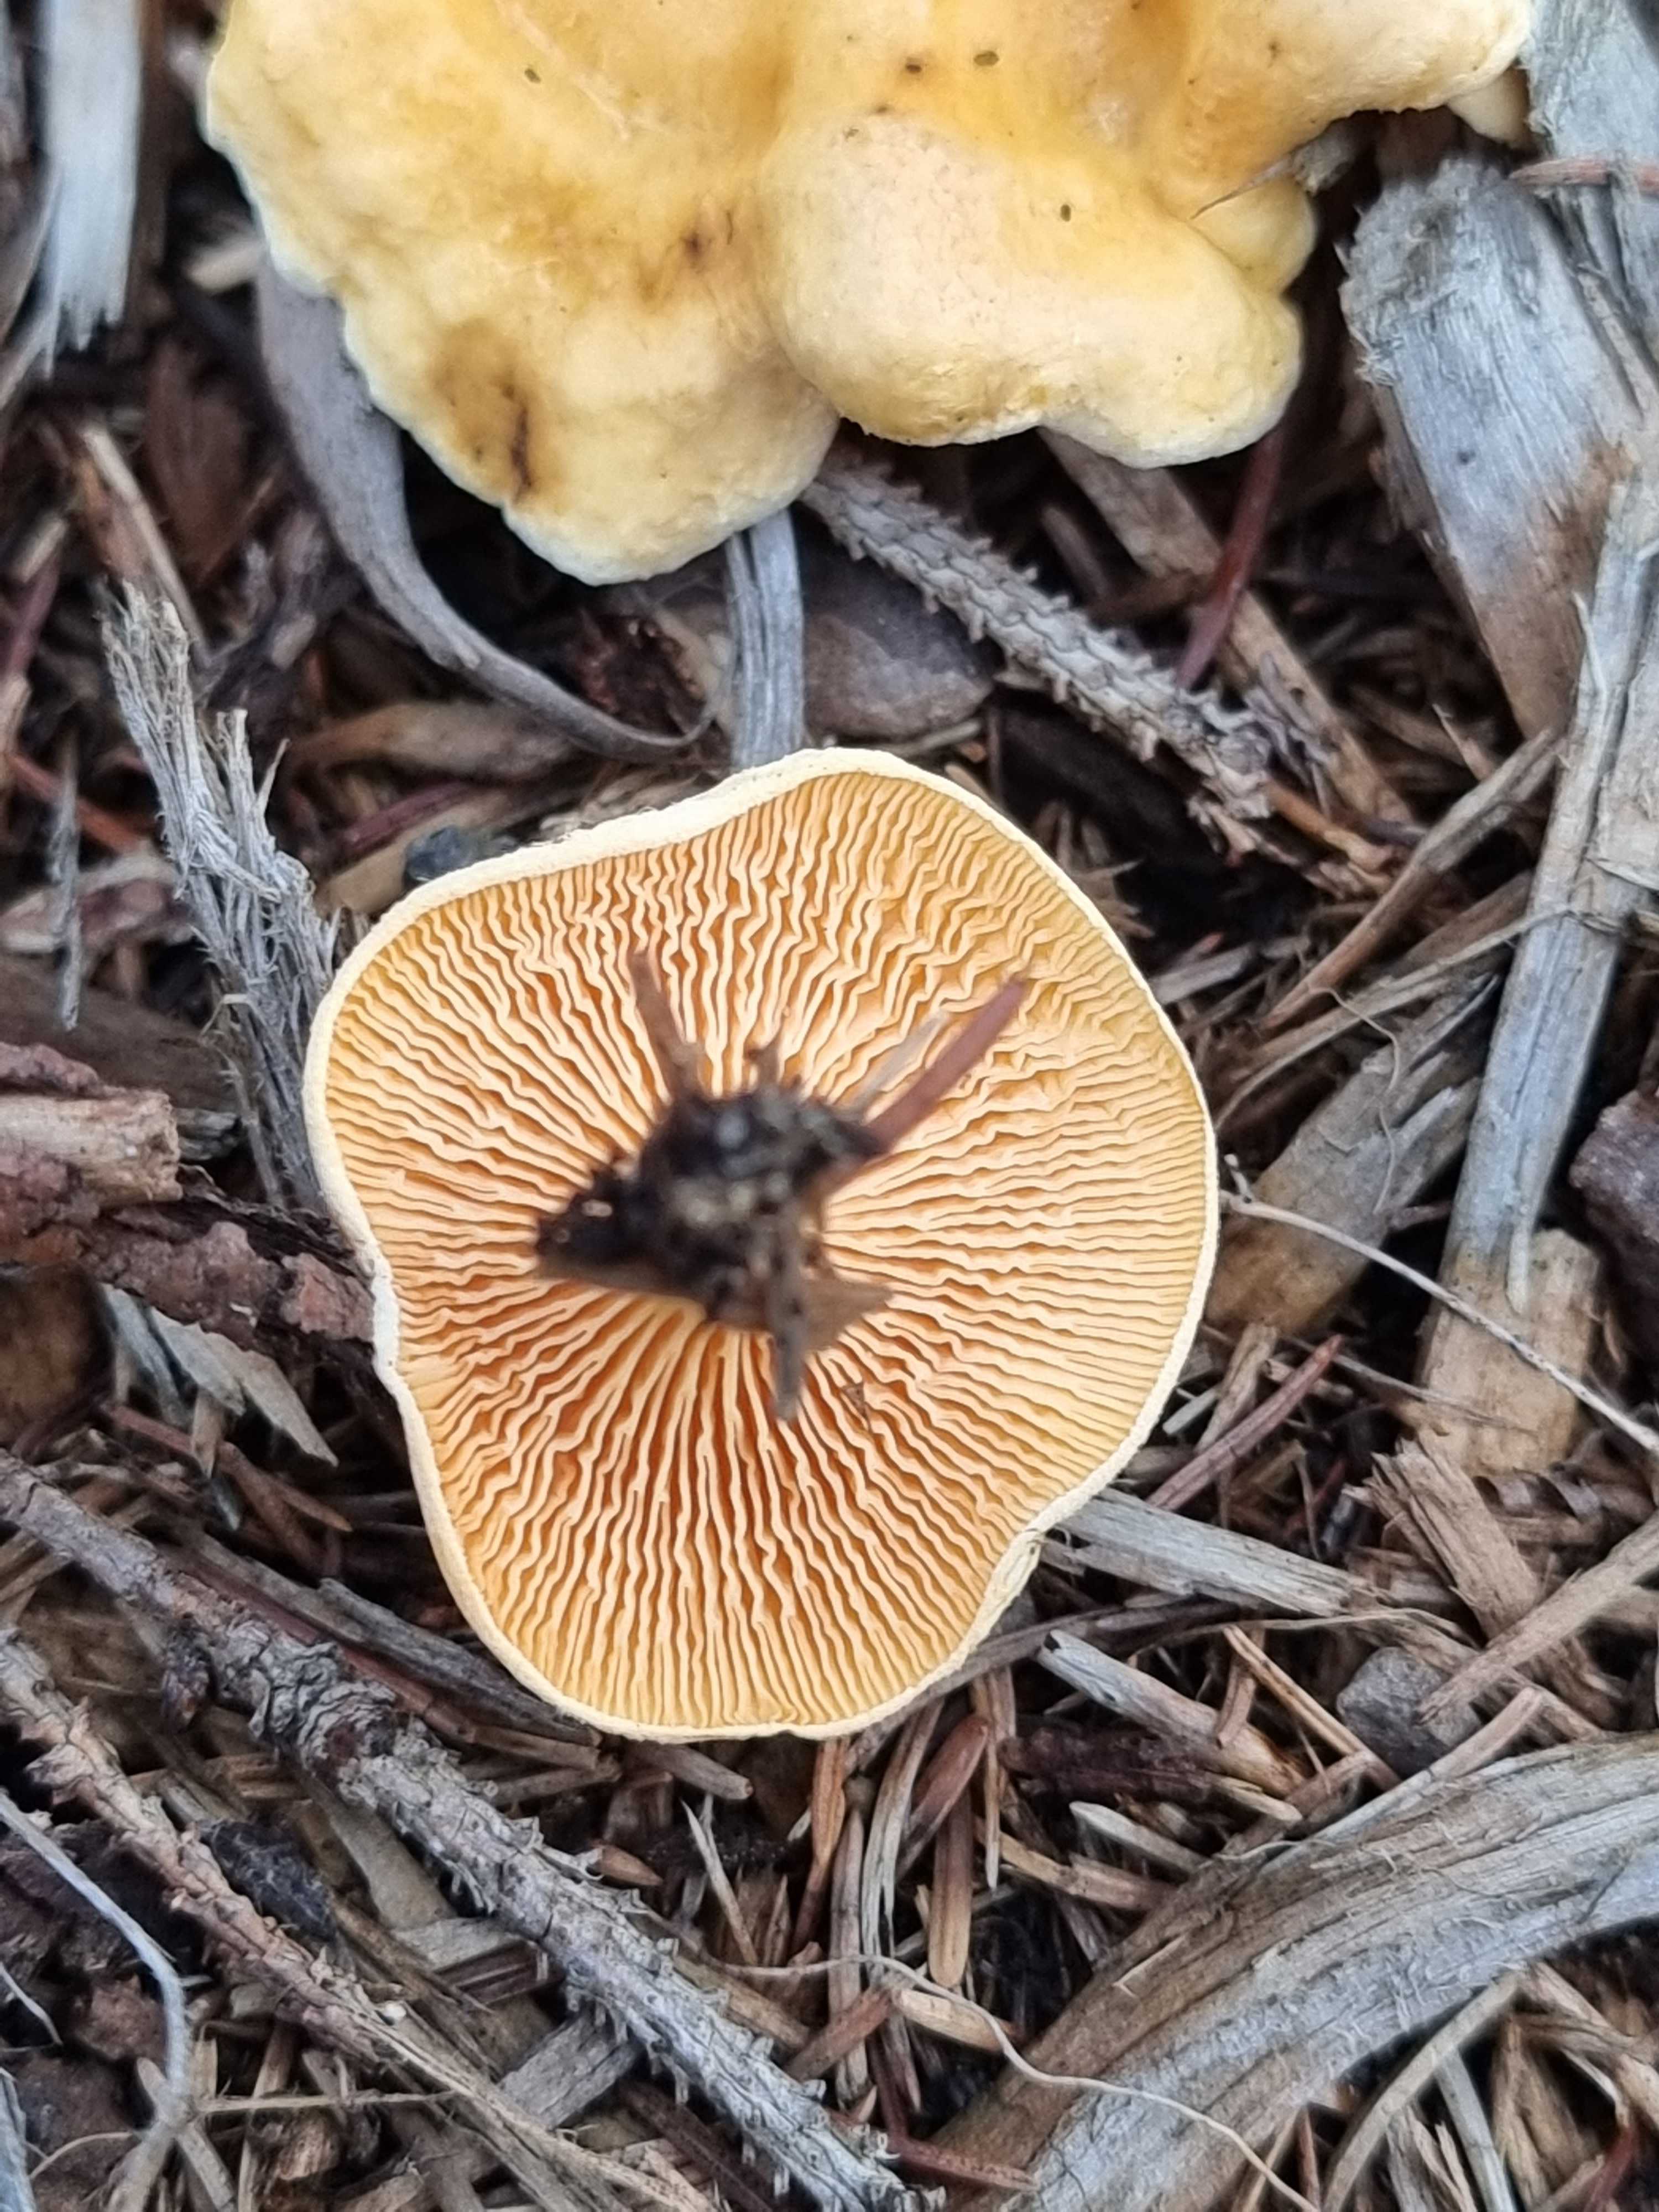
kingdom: Fungi
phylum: Basidiomycota
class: Agaricomycetes
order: Boletales
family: Hygrophoropsidaceae
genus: Hygrophoropsis
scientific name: Hygrophoropsis aurantiaca
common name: almindelig orangekantarel
